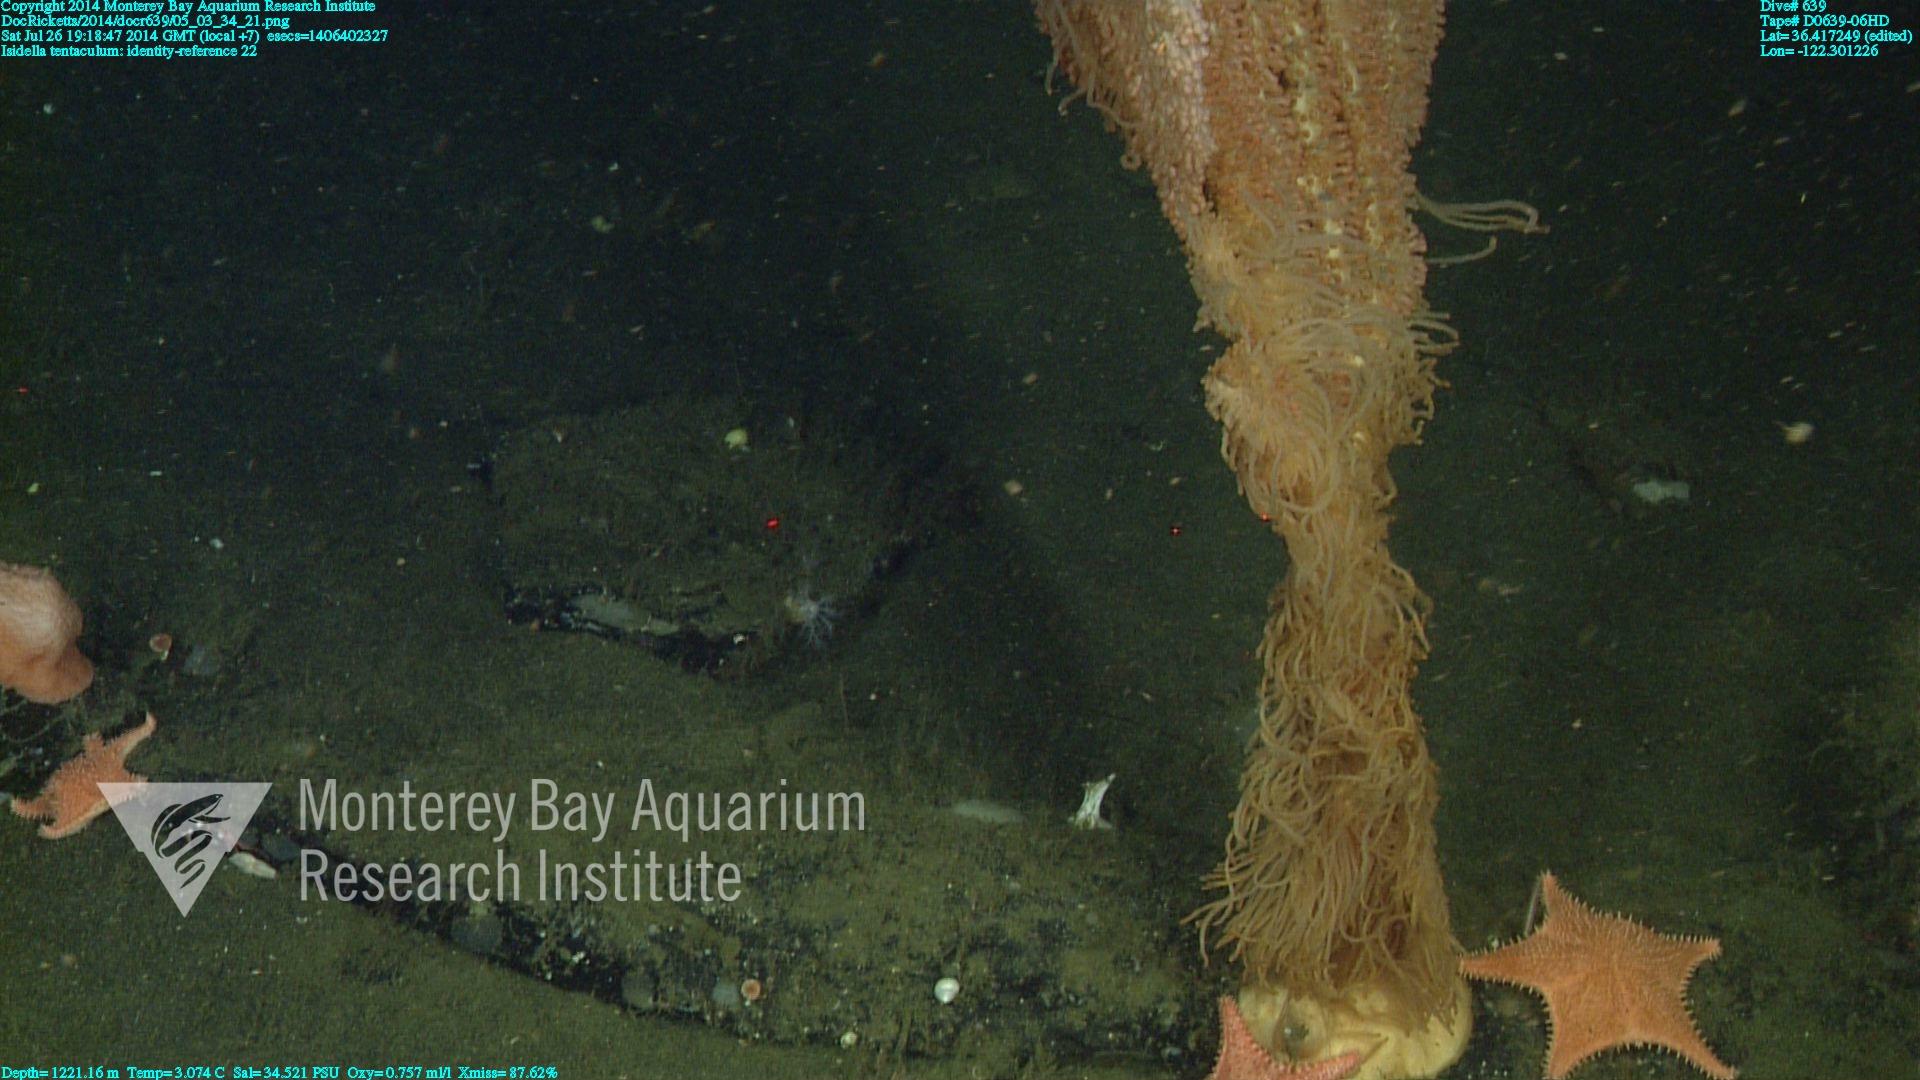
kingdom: Animalia
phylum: Cnidaria
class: Anthozoa
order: Scleralcyonacea
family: Keratoisididae
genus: Isidella
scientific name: Isidella tentaculum
